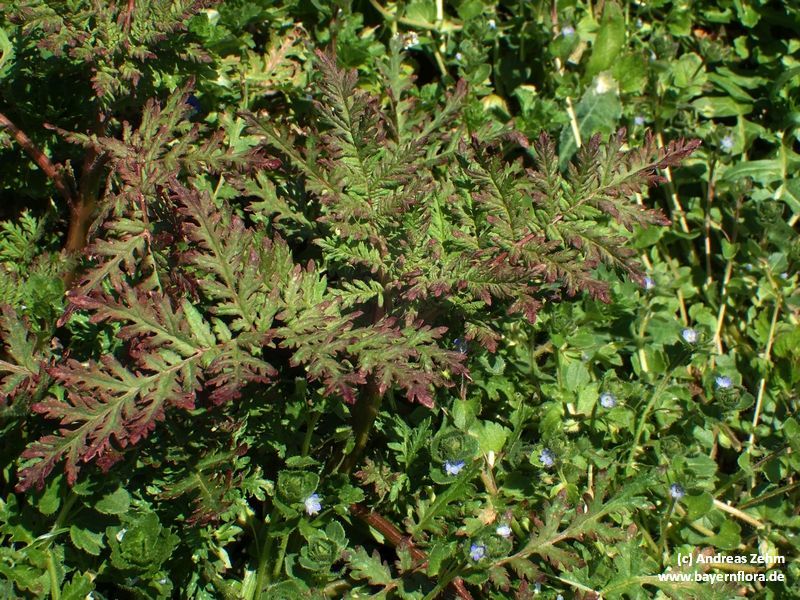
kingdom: Plantae
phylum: Tracheophyta
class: Magnoliopsida
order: Boraginales
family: Hydrophyllaceae
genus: Phacelia
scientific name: Phacelia tanacetifolia
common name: Phacelia
